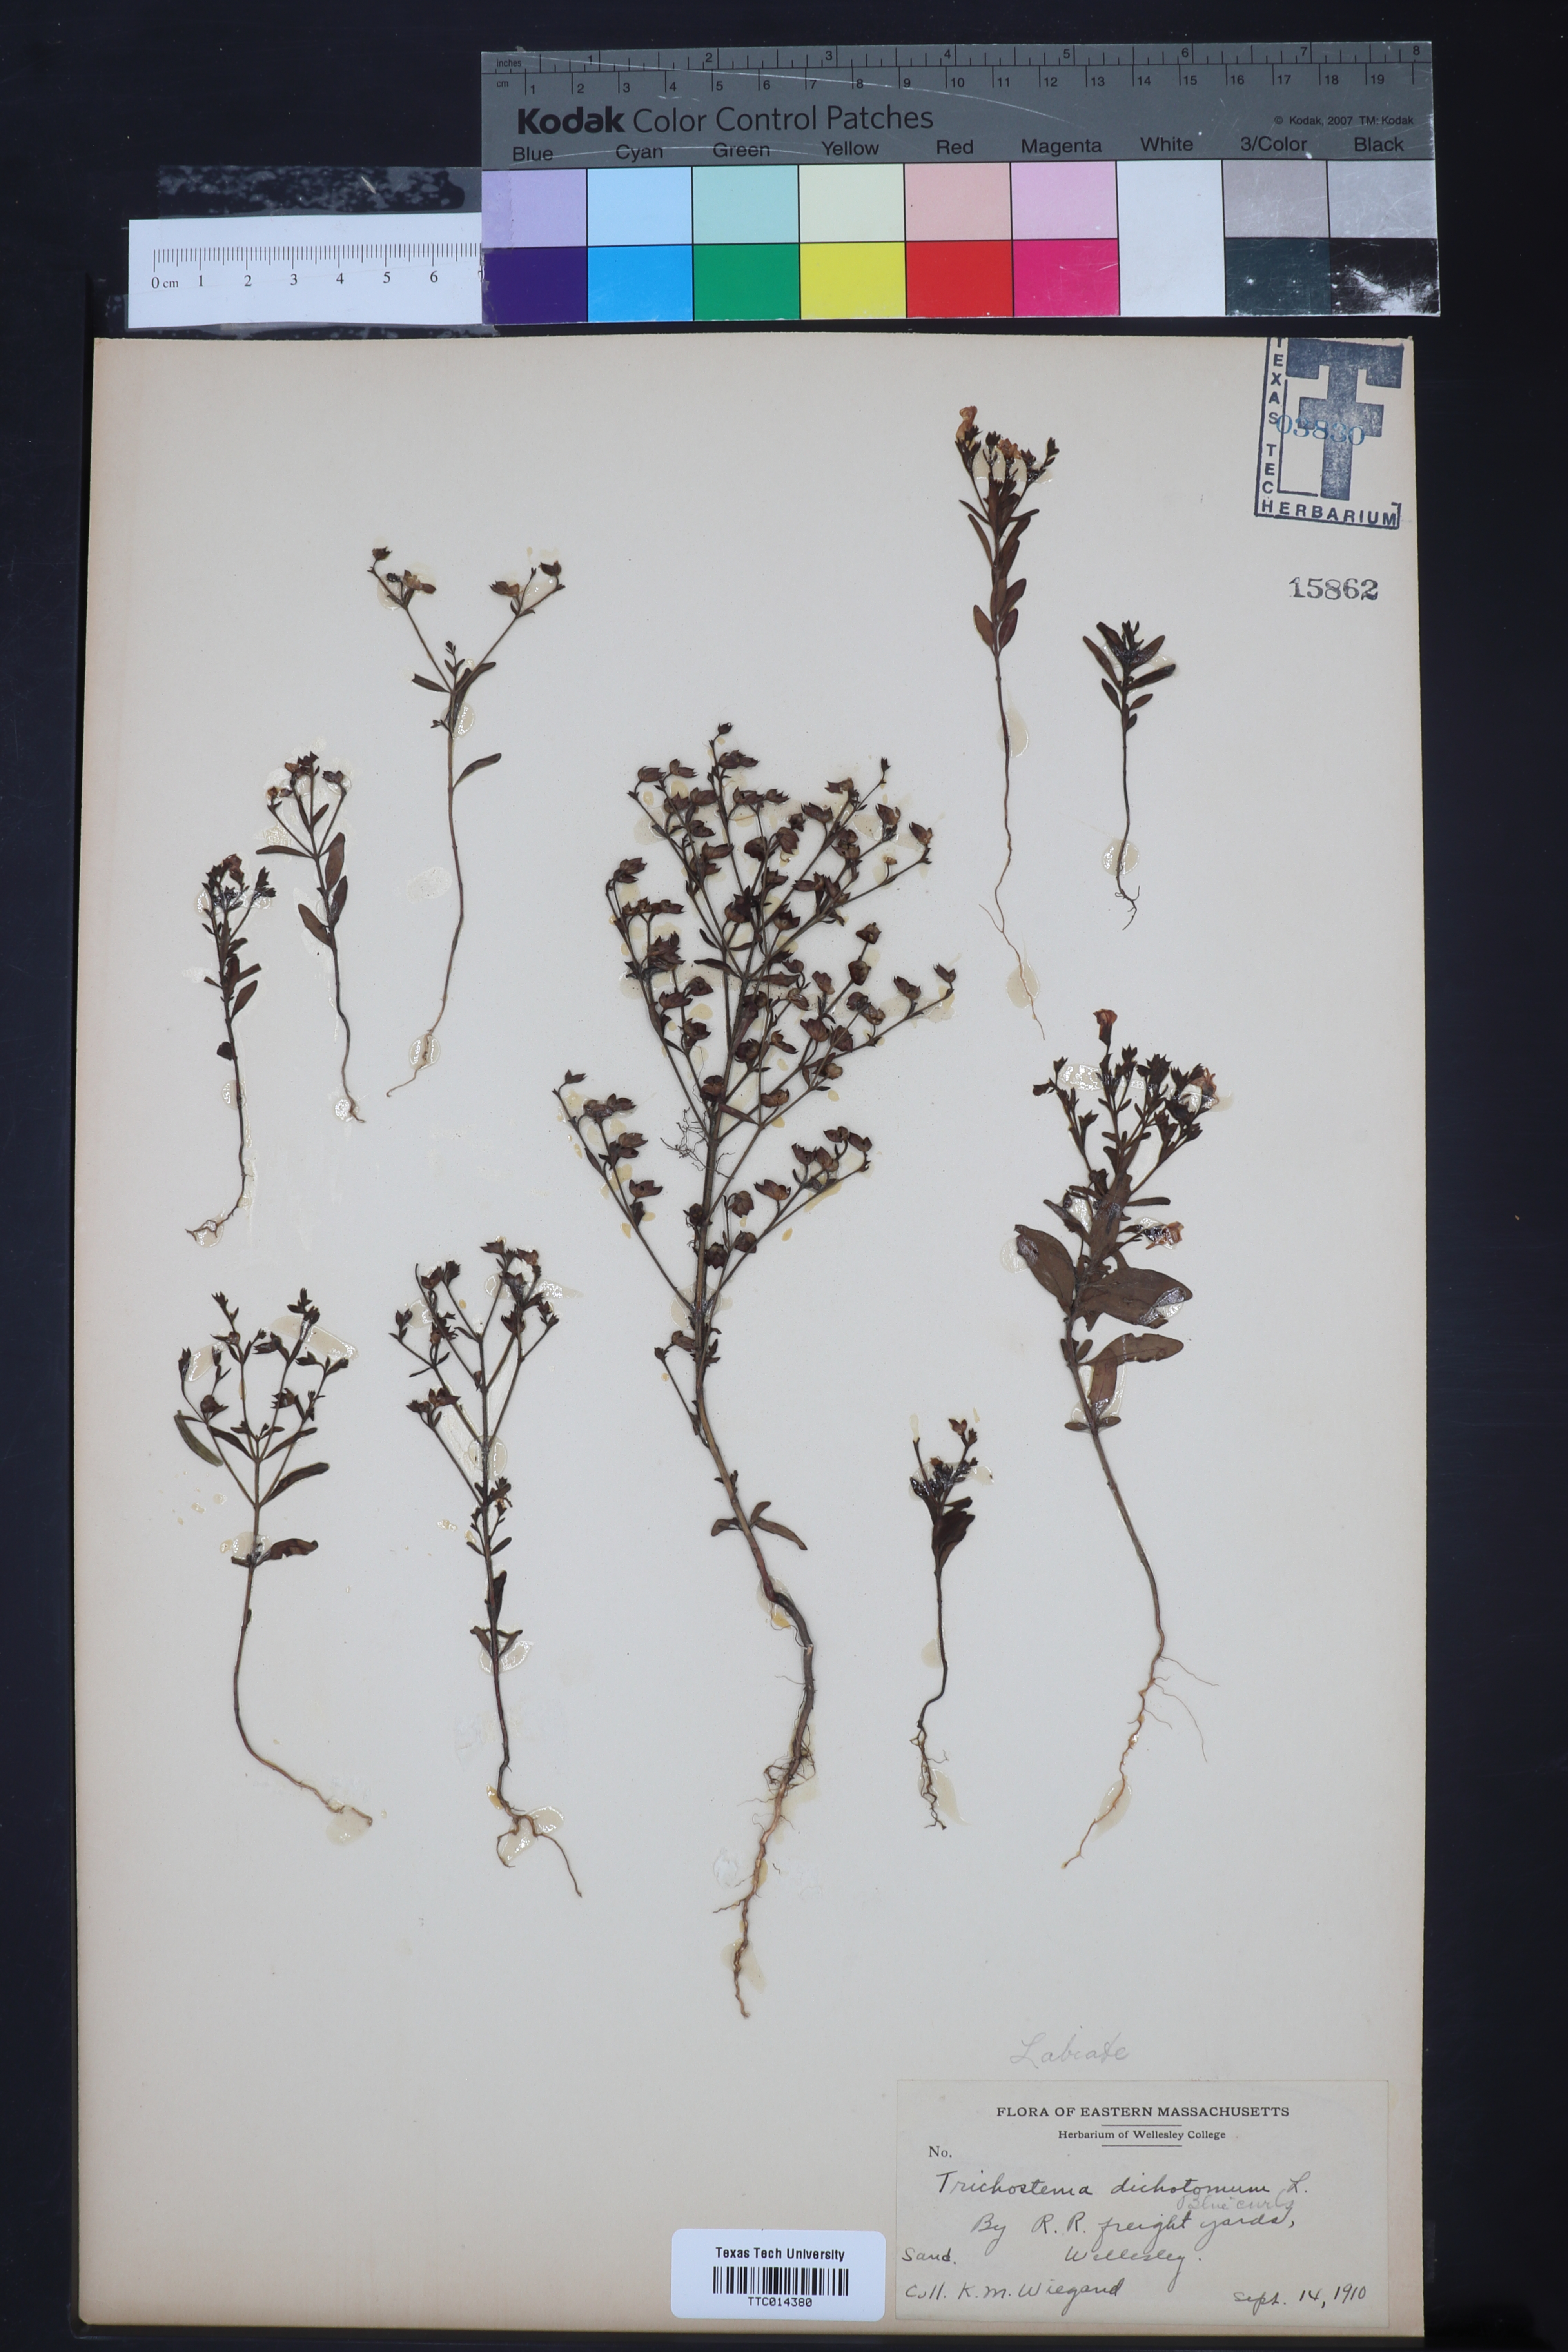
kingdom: Plantae
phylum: Tracheophyta
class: Magnoliopsida
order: Lamiales
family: Lamiaceae
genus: Trichostema
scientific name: Trichostema dichotomum
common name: Bastard pennyroyal
